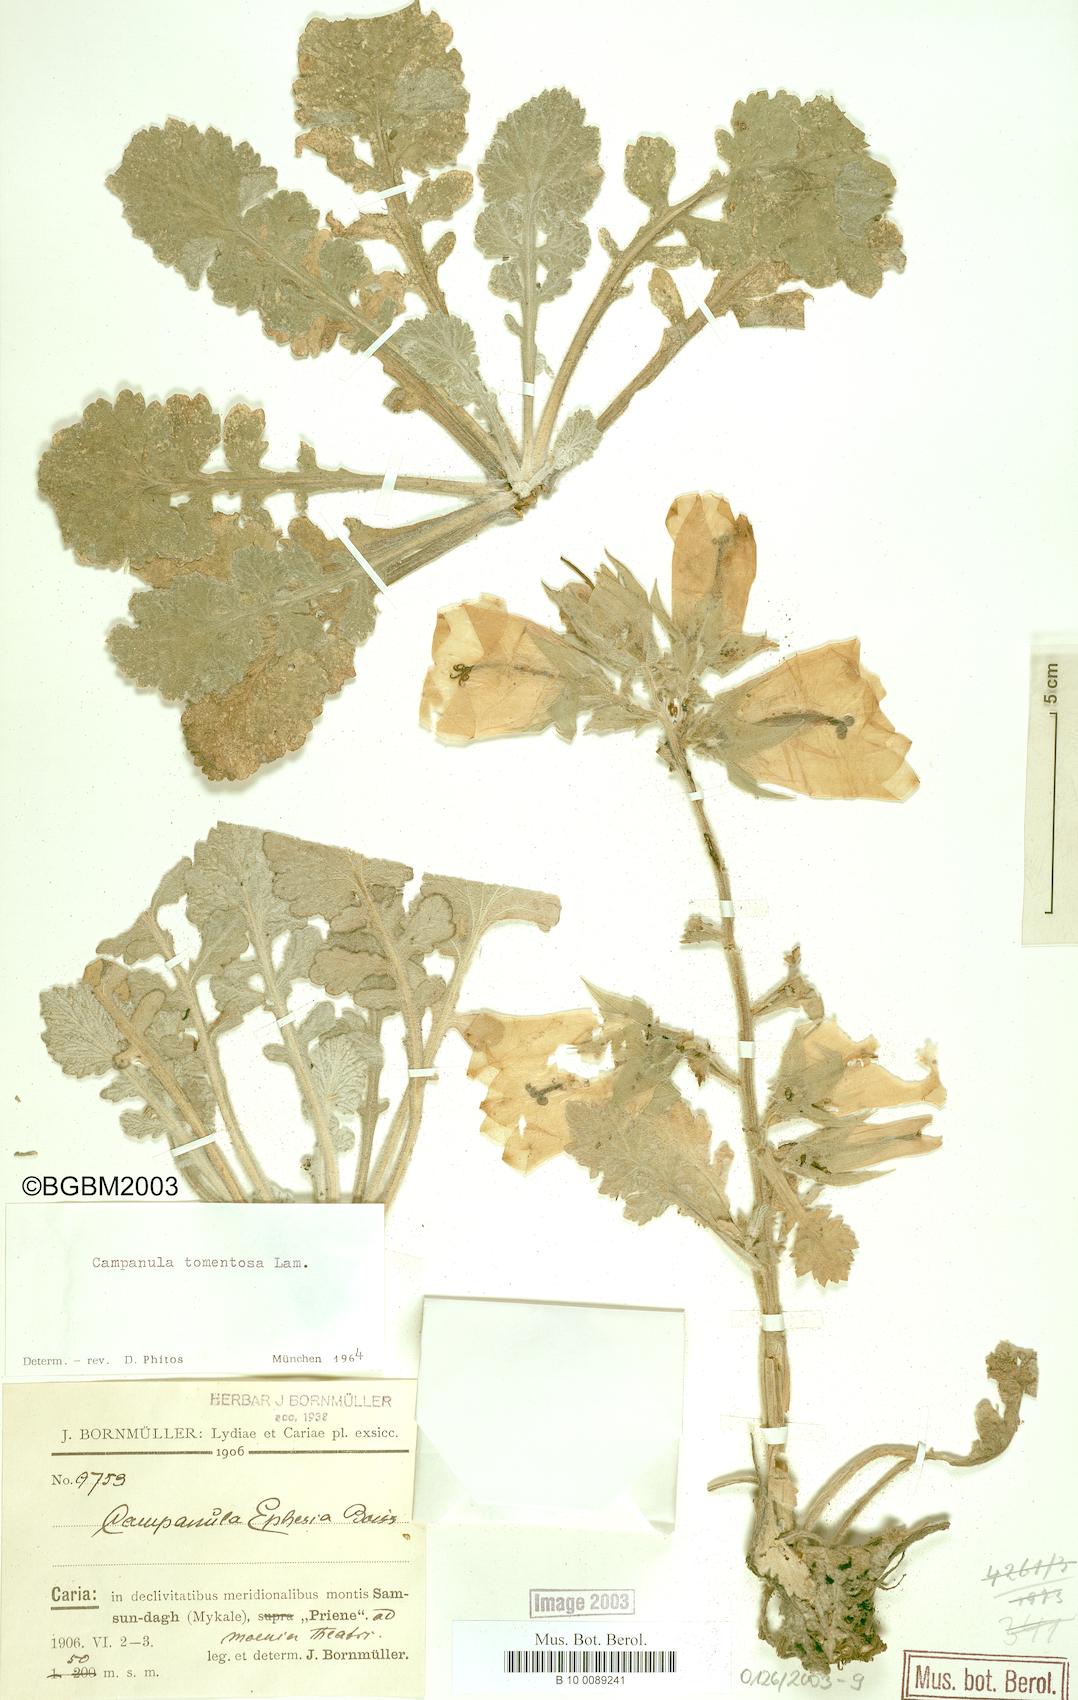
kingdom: Plantae
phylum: Tracheophyta
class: Magnoliopsida
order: Asterales
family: Campanulaceae
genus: Campanula
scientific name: Campanula tomentosa
